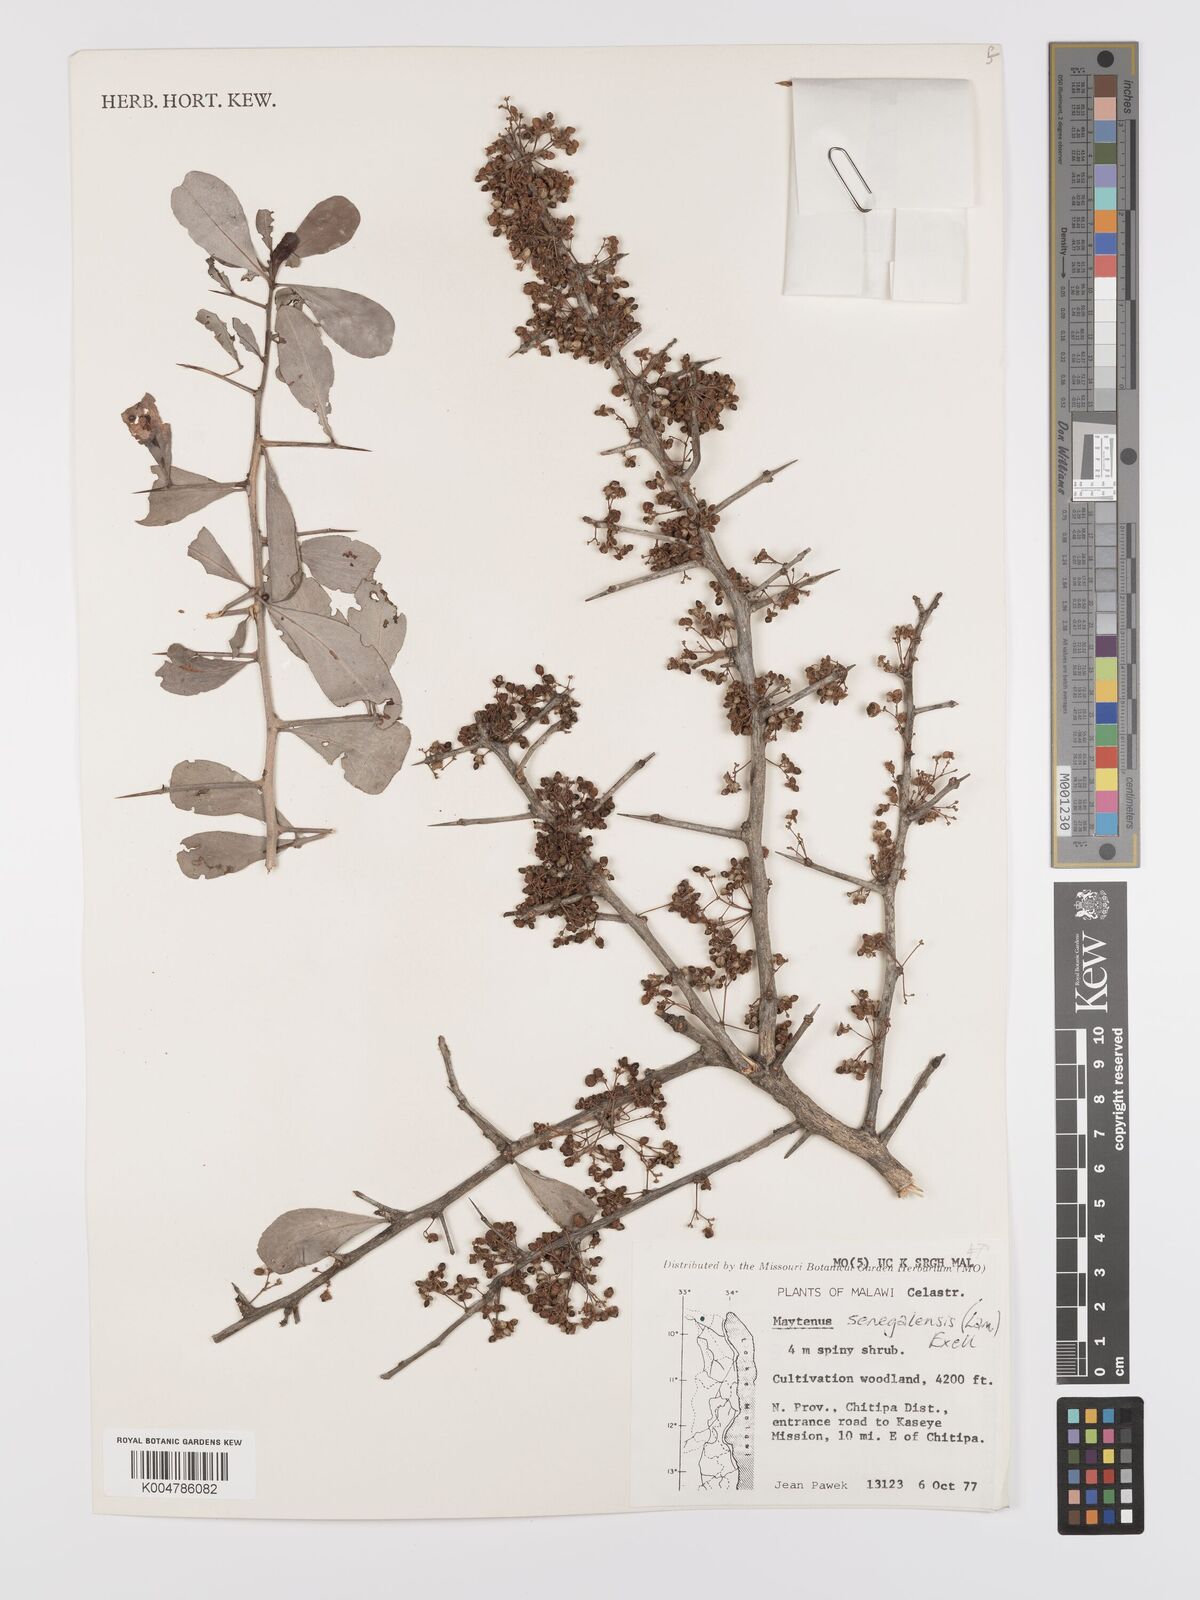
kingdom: Plantae
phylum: Tracheophyta
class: Magnoliopsida
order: Celastrales
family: Celastraceae
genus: Gymnosporia
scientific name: Gymnosporia senegalensis
